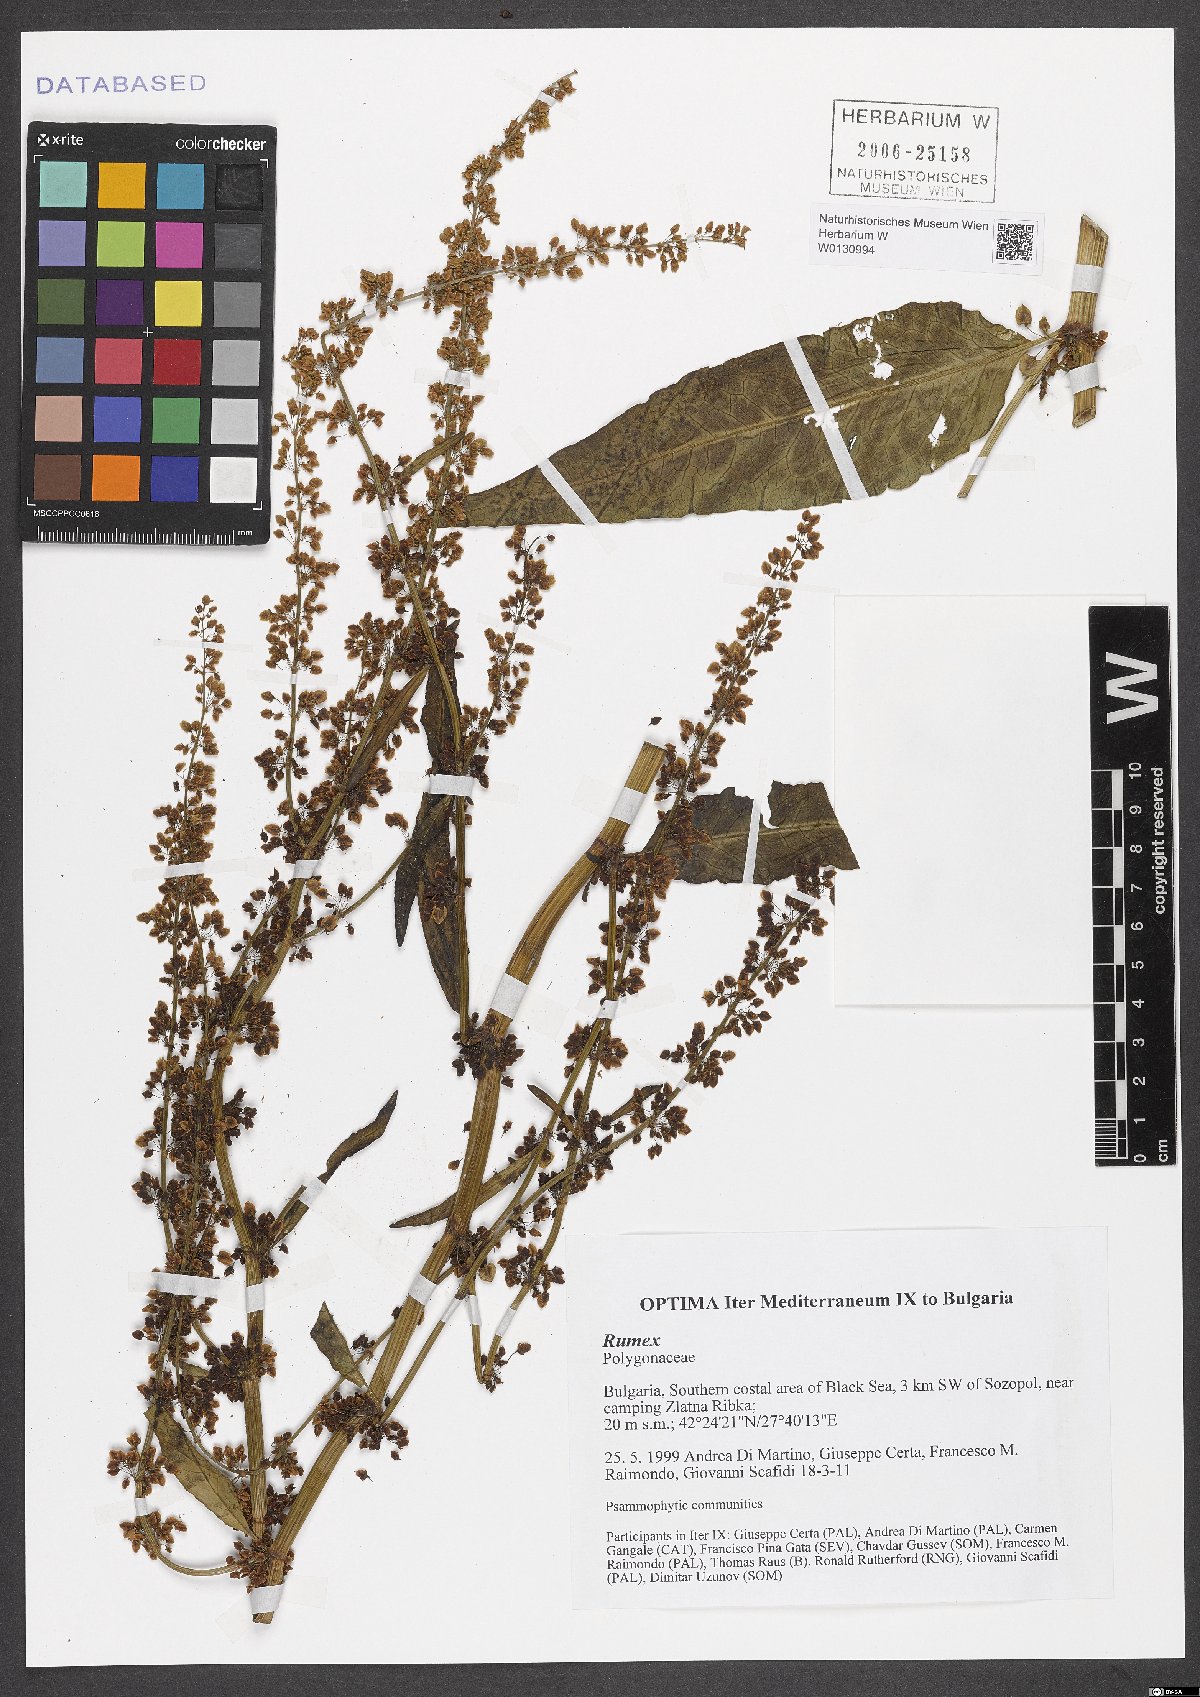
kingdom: Plantae
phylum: Tracheophyta
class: Magnoliopsida
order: Caryophyllales
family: Polygonaceae
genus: Rumex
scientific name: Rumex
